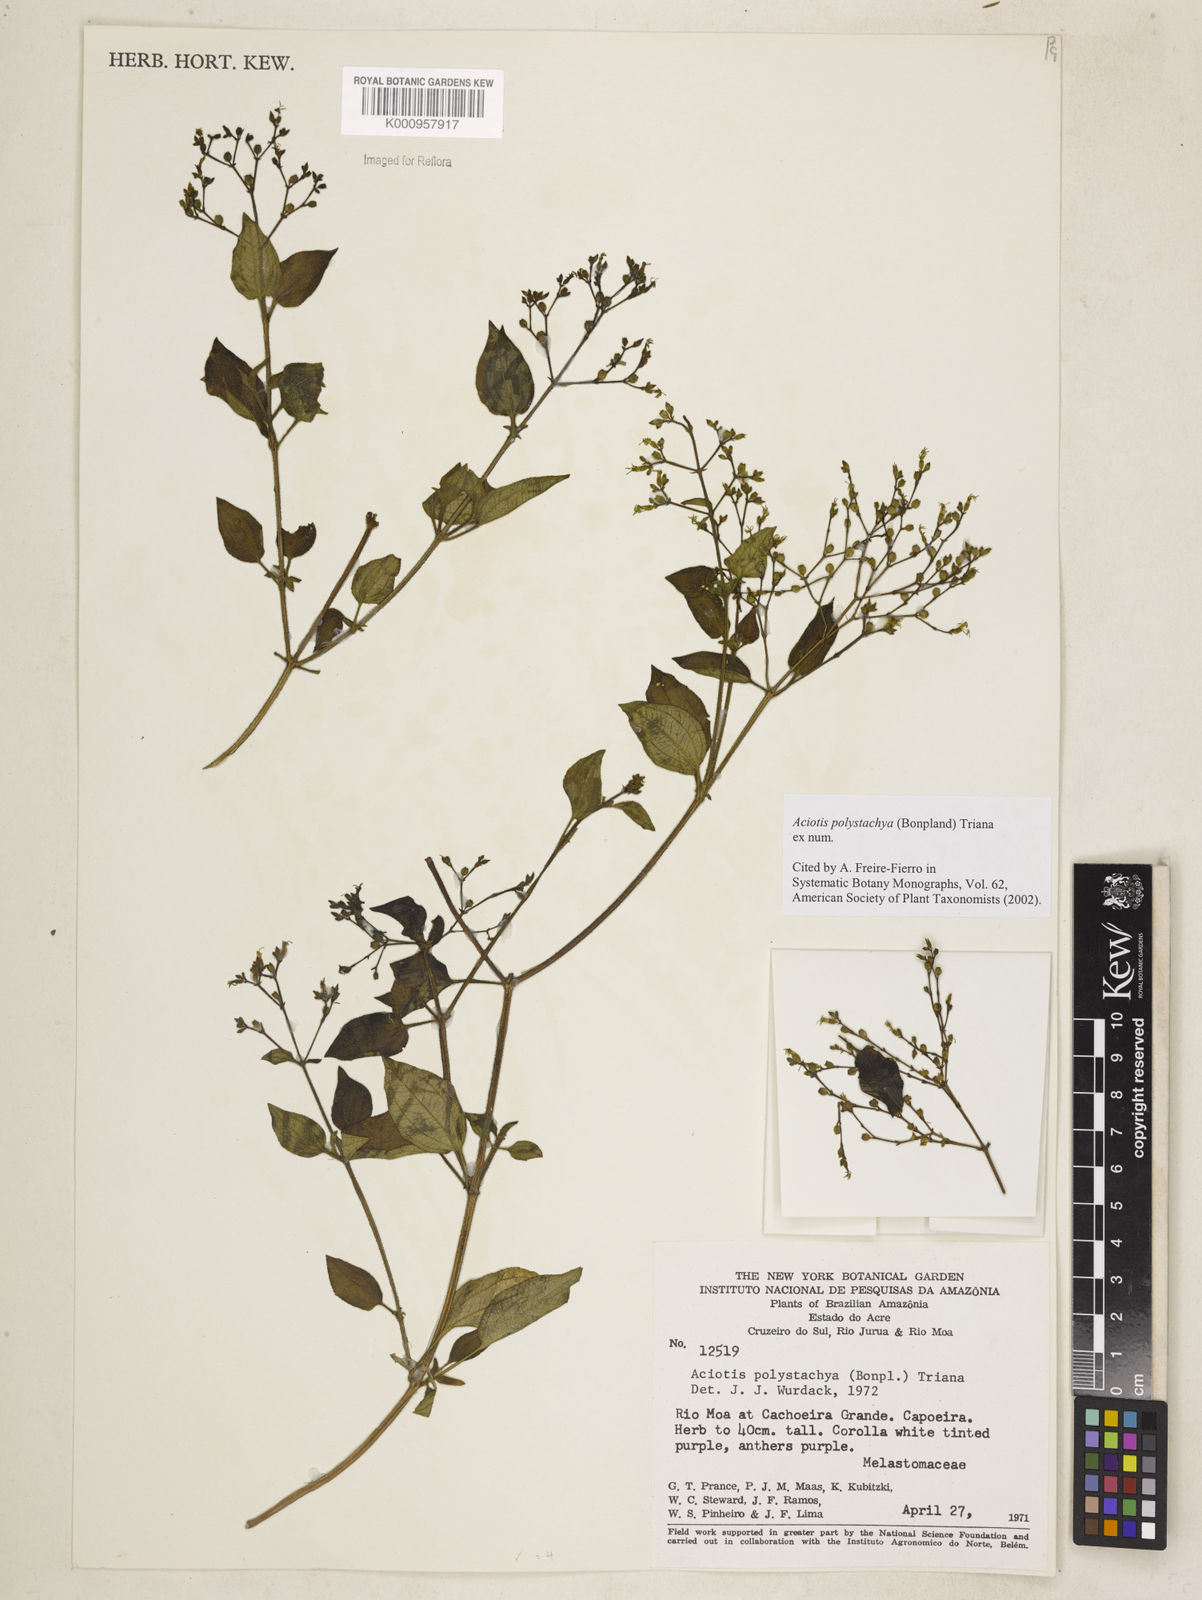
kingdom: Plantae
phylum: Tracheophyta
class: Magnoliopsida
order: Myrtales
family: Melastomataceae
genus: Aciotis
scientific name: Aciotis polystachya
